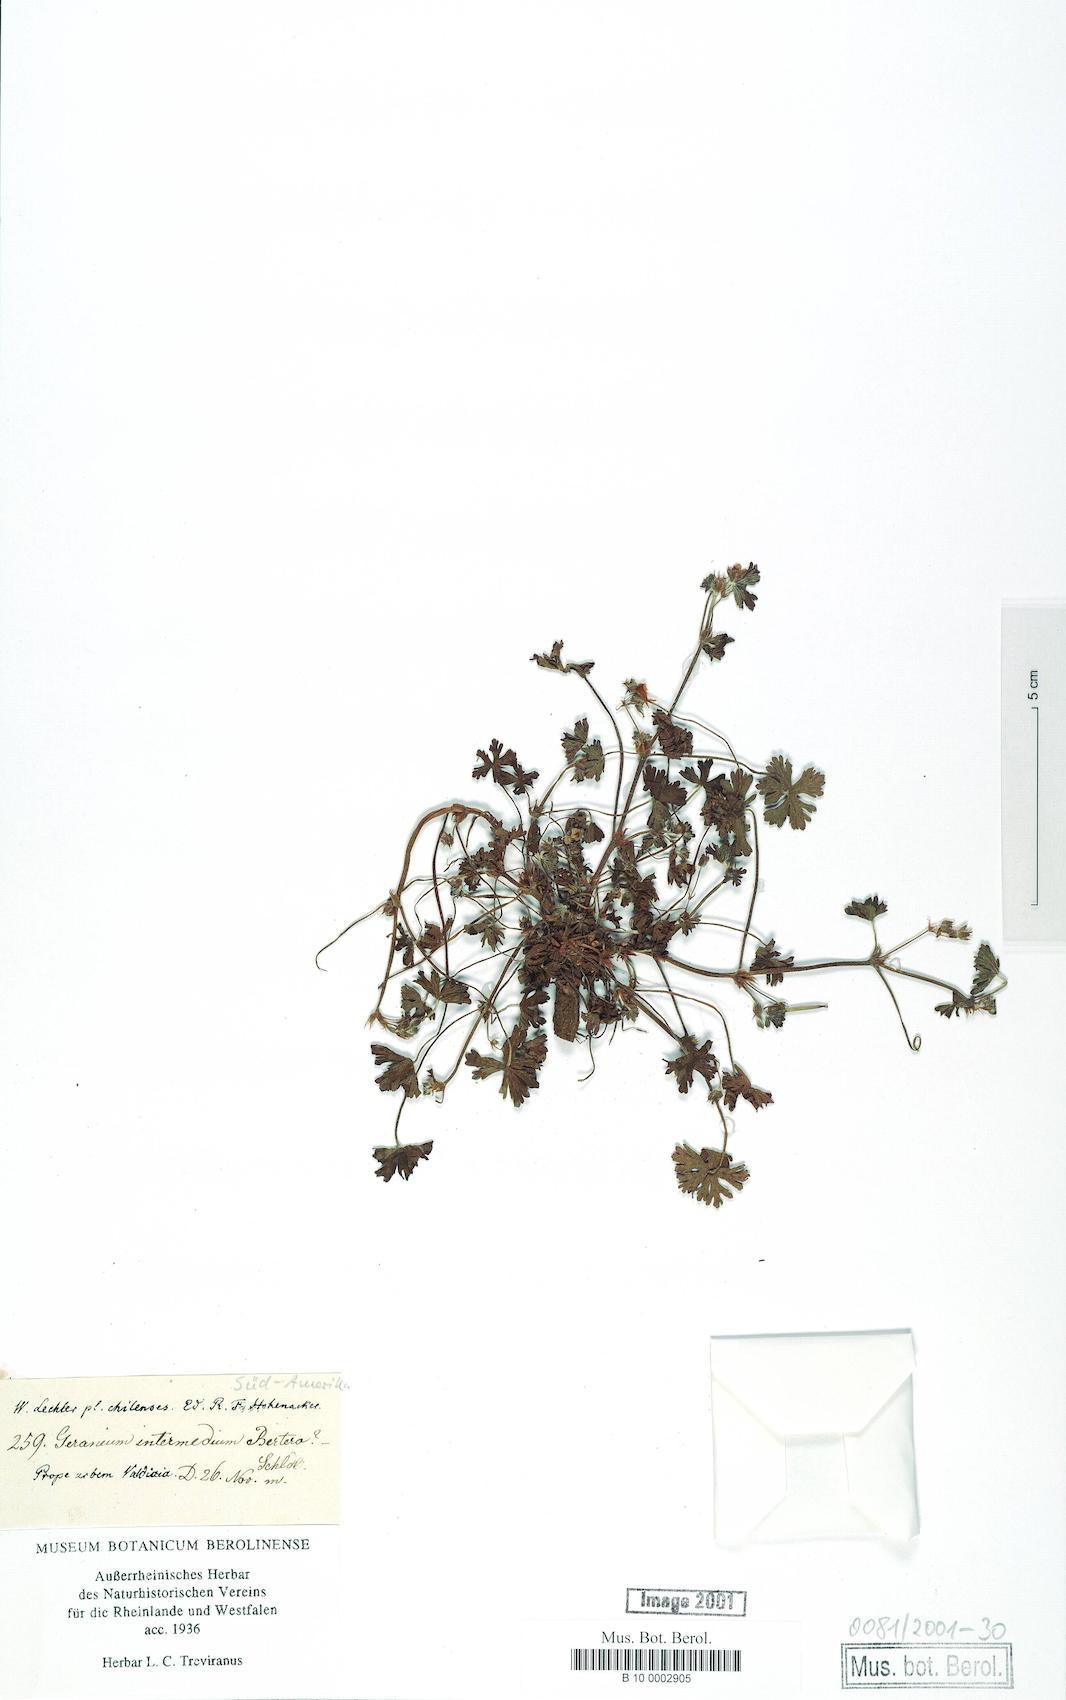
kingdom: Plantae
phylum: Tracheophyta
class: Magnoliopsida
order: Geraniales
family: Geraniaceae
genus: Geranium
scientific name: Geranium intermedium
